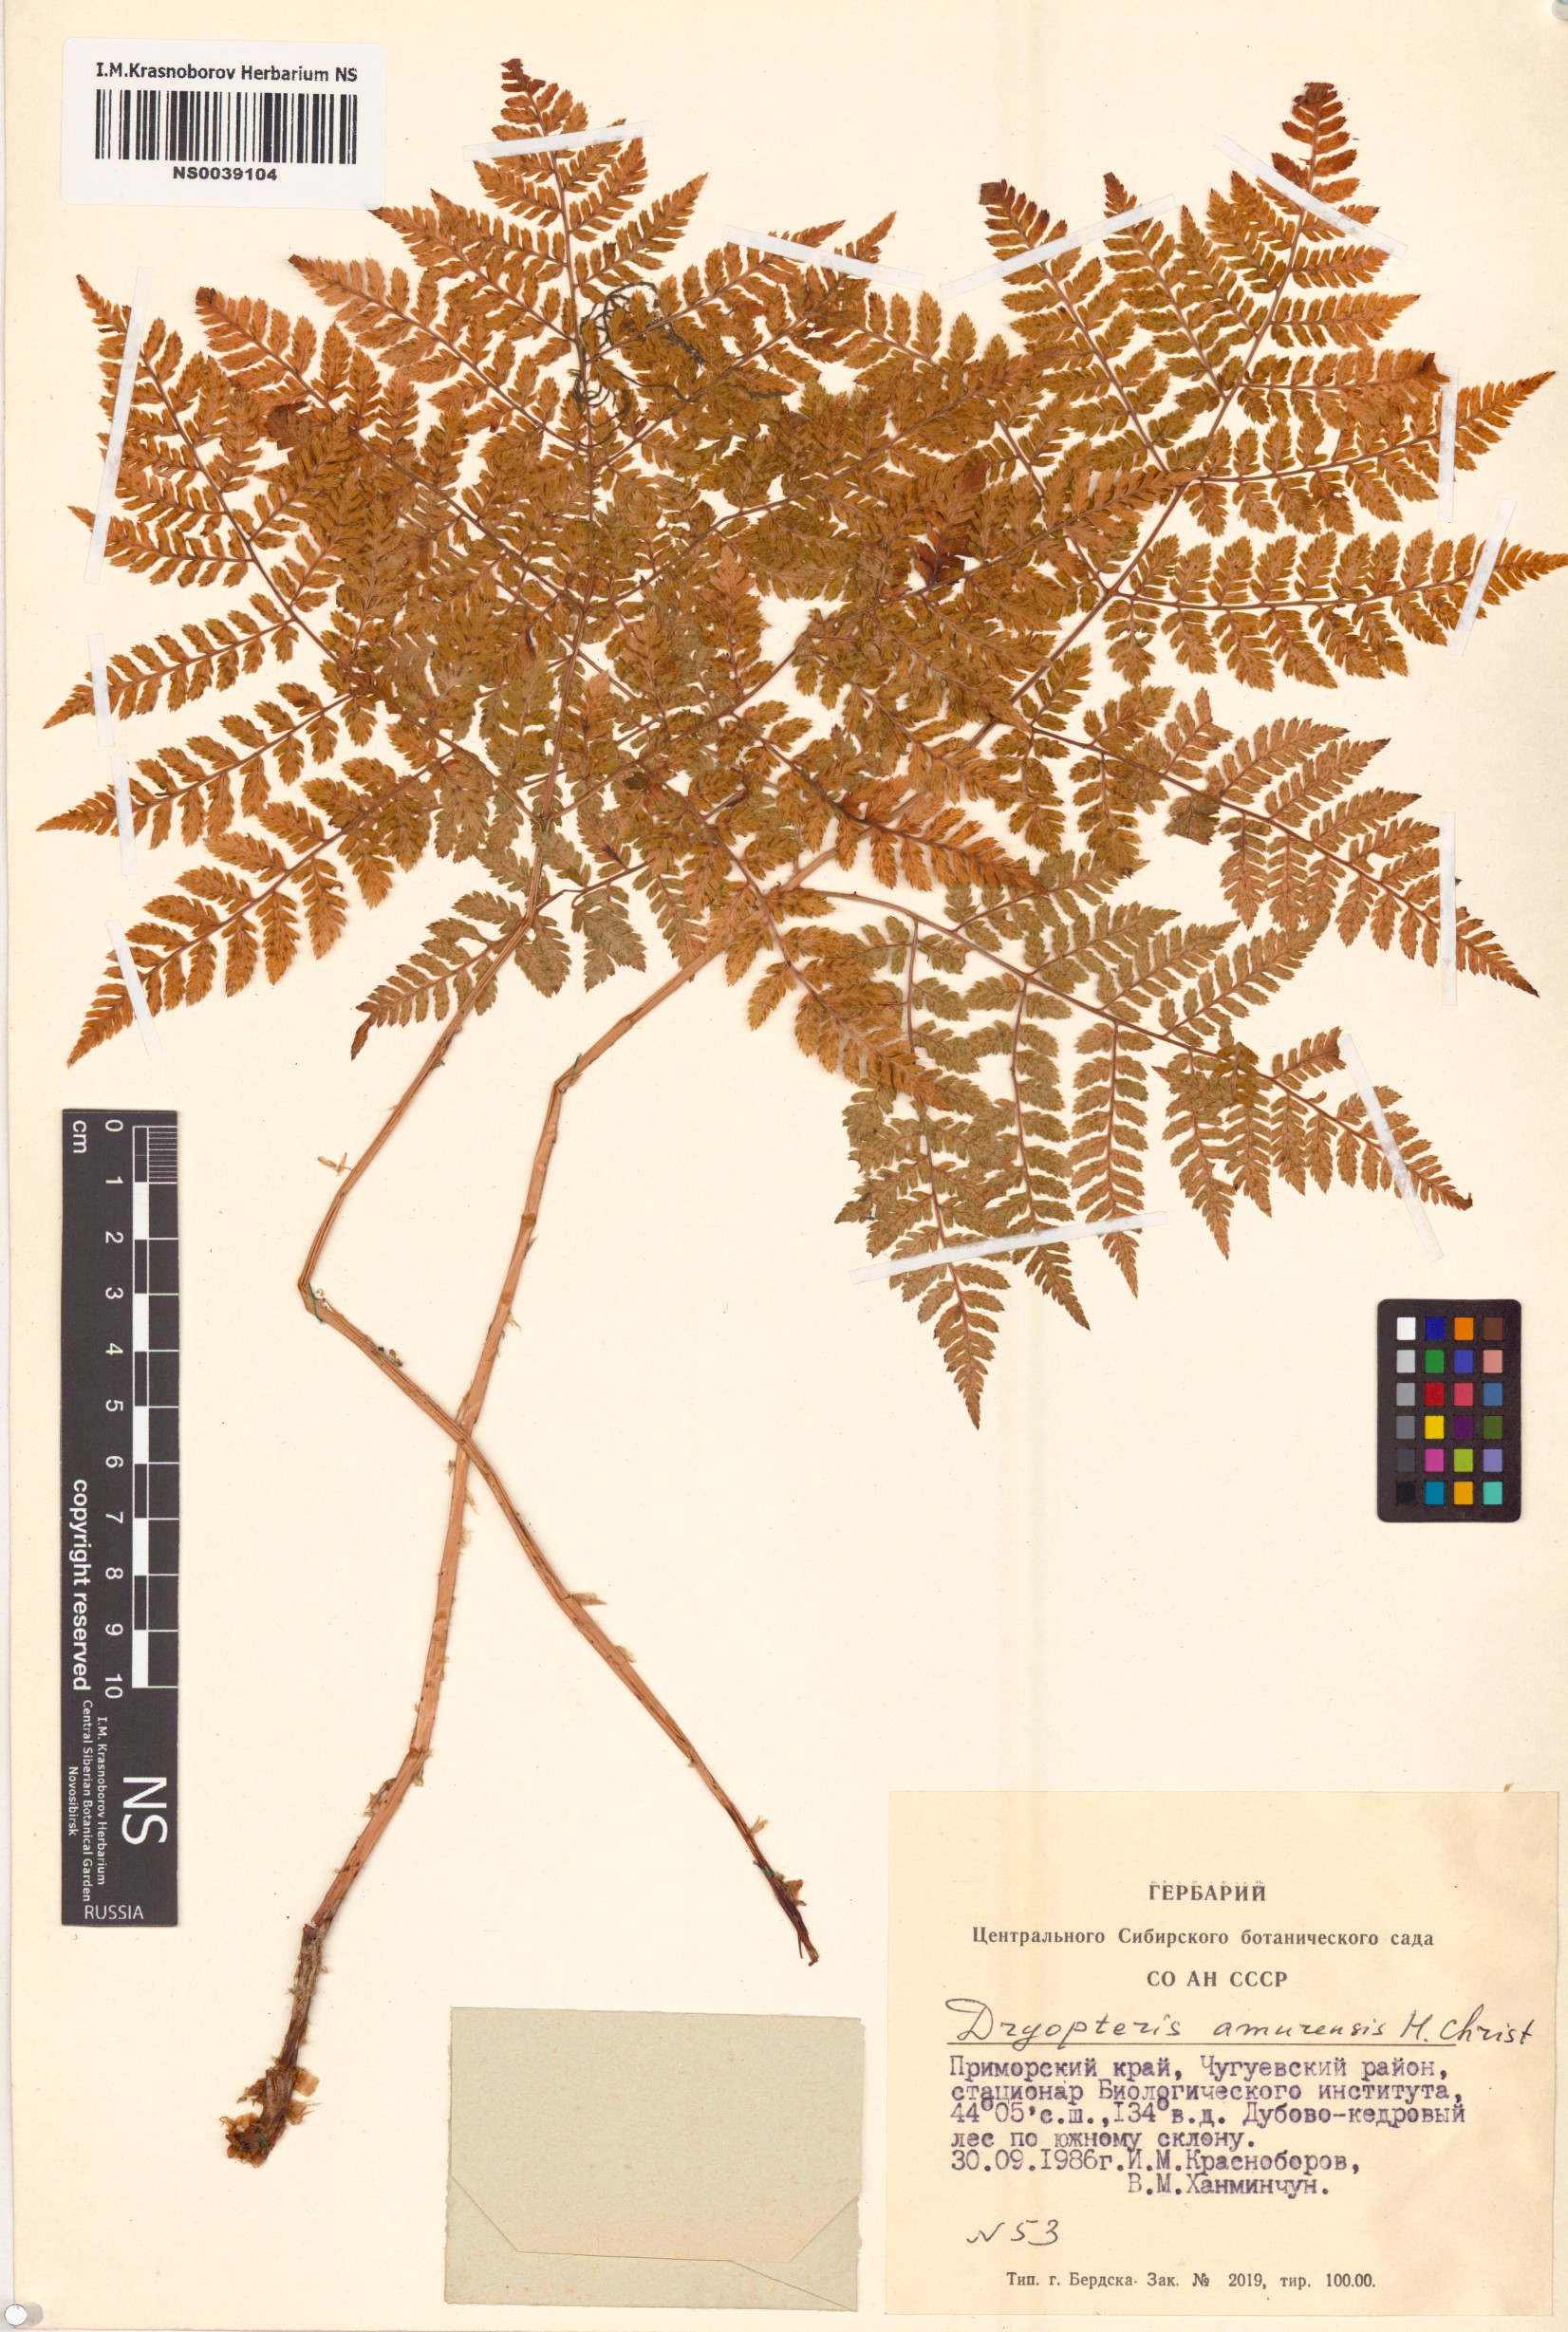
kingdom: Plantae
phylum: Tracheophyta
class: Polypodiopsida
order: Polypodiales
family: Dryopteridaceae
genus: Dryopteris
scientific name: Dryopteris amurensis
